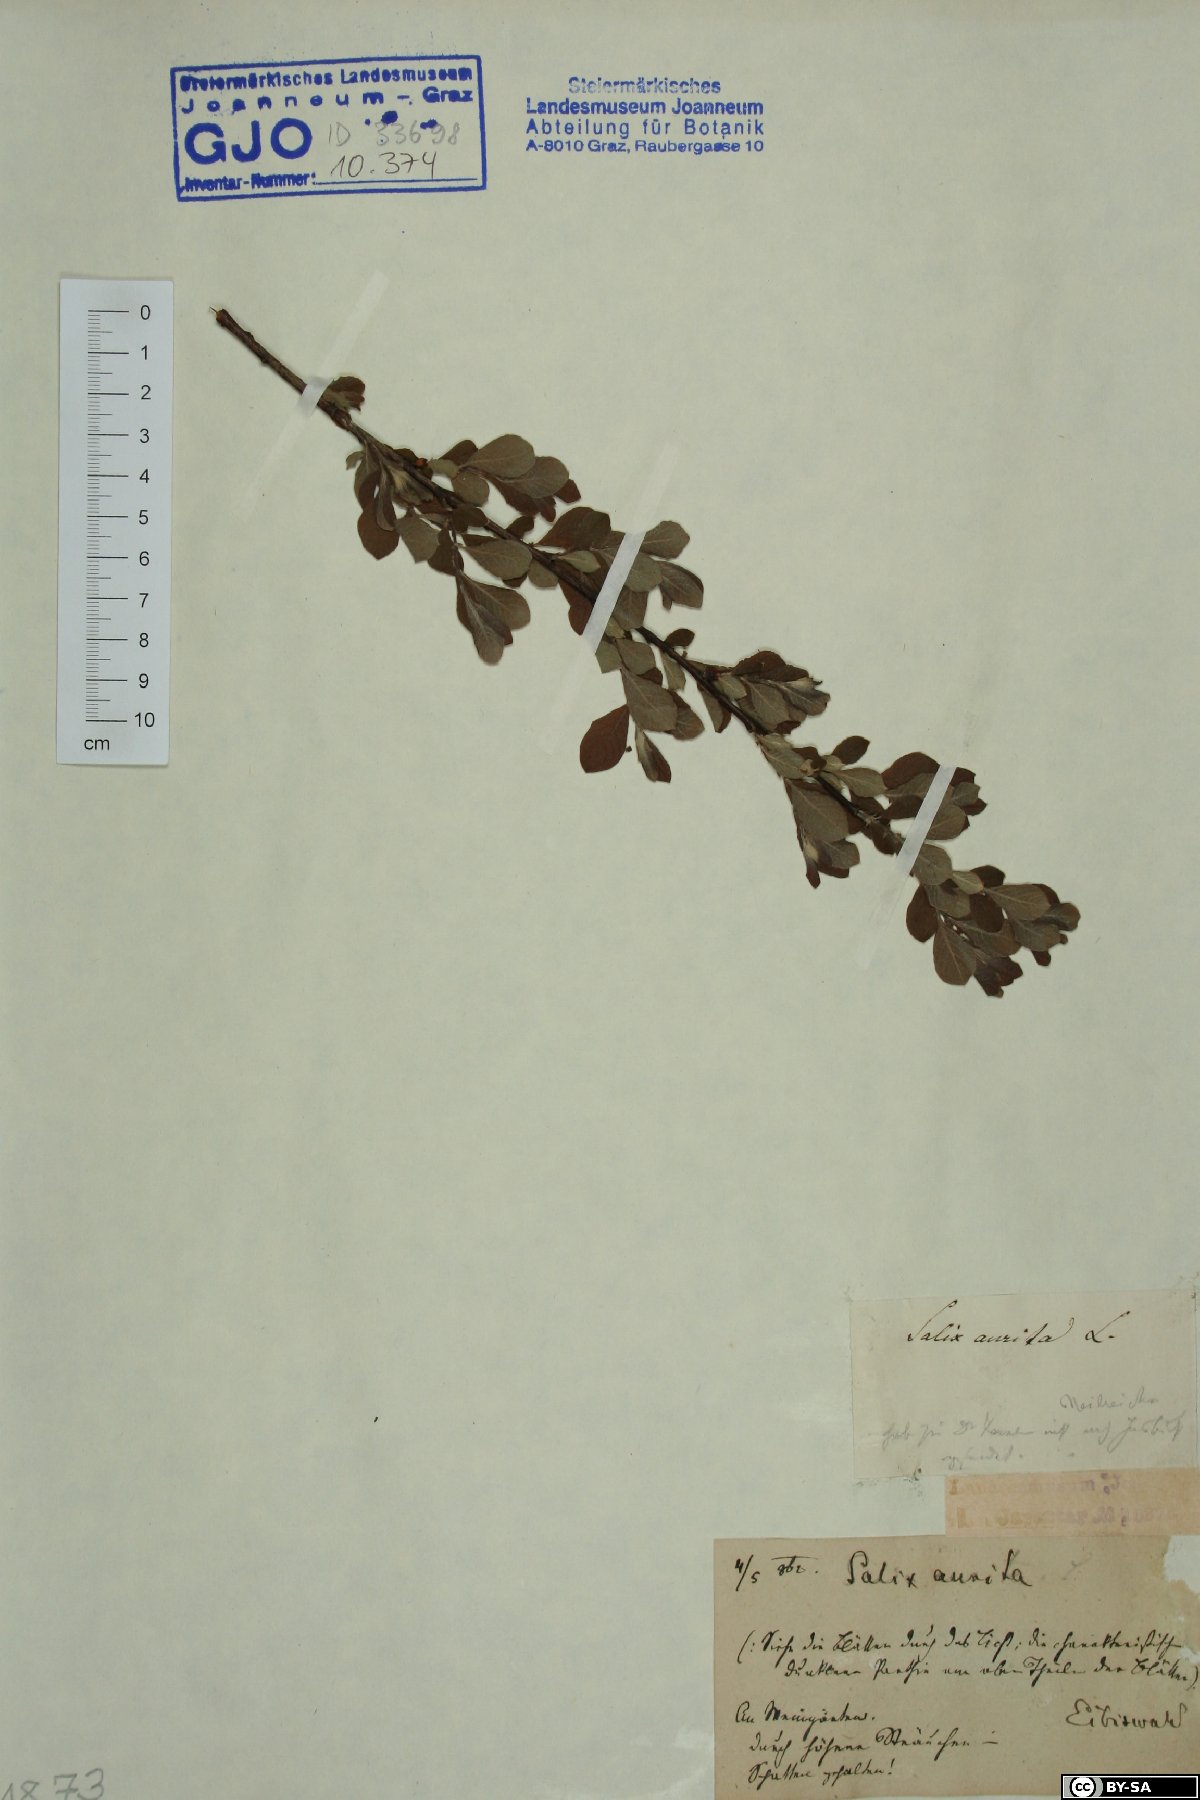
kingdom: Plantae
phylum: Tracheophyta
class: Magnoliopsida
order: Malpighiales
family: Salicaceae
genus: Salix
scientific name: Salix aurita
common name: Eared willow
